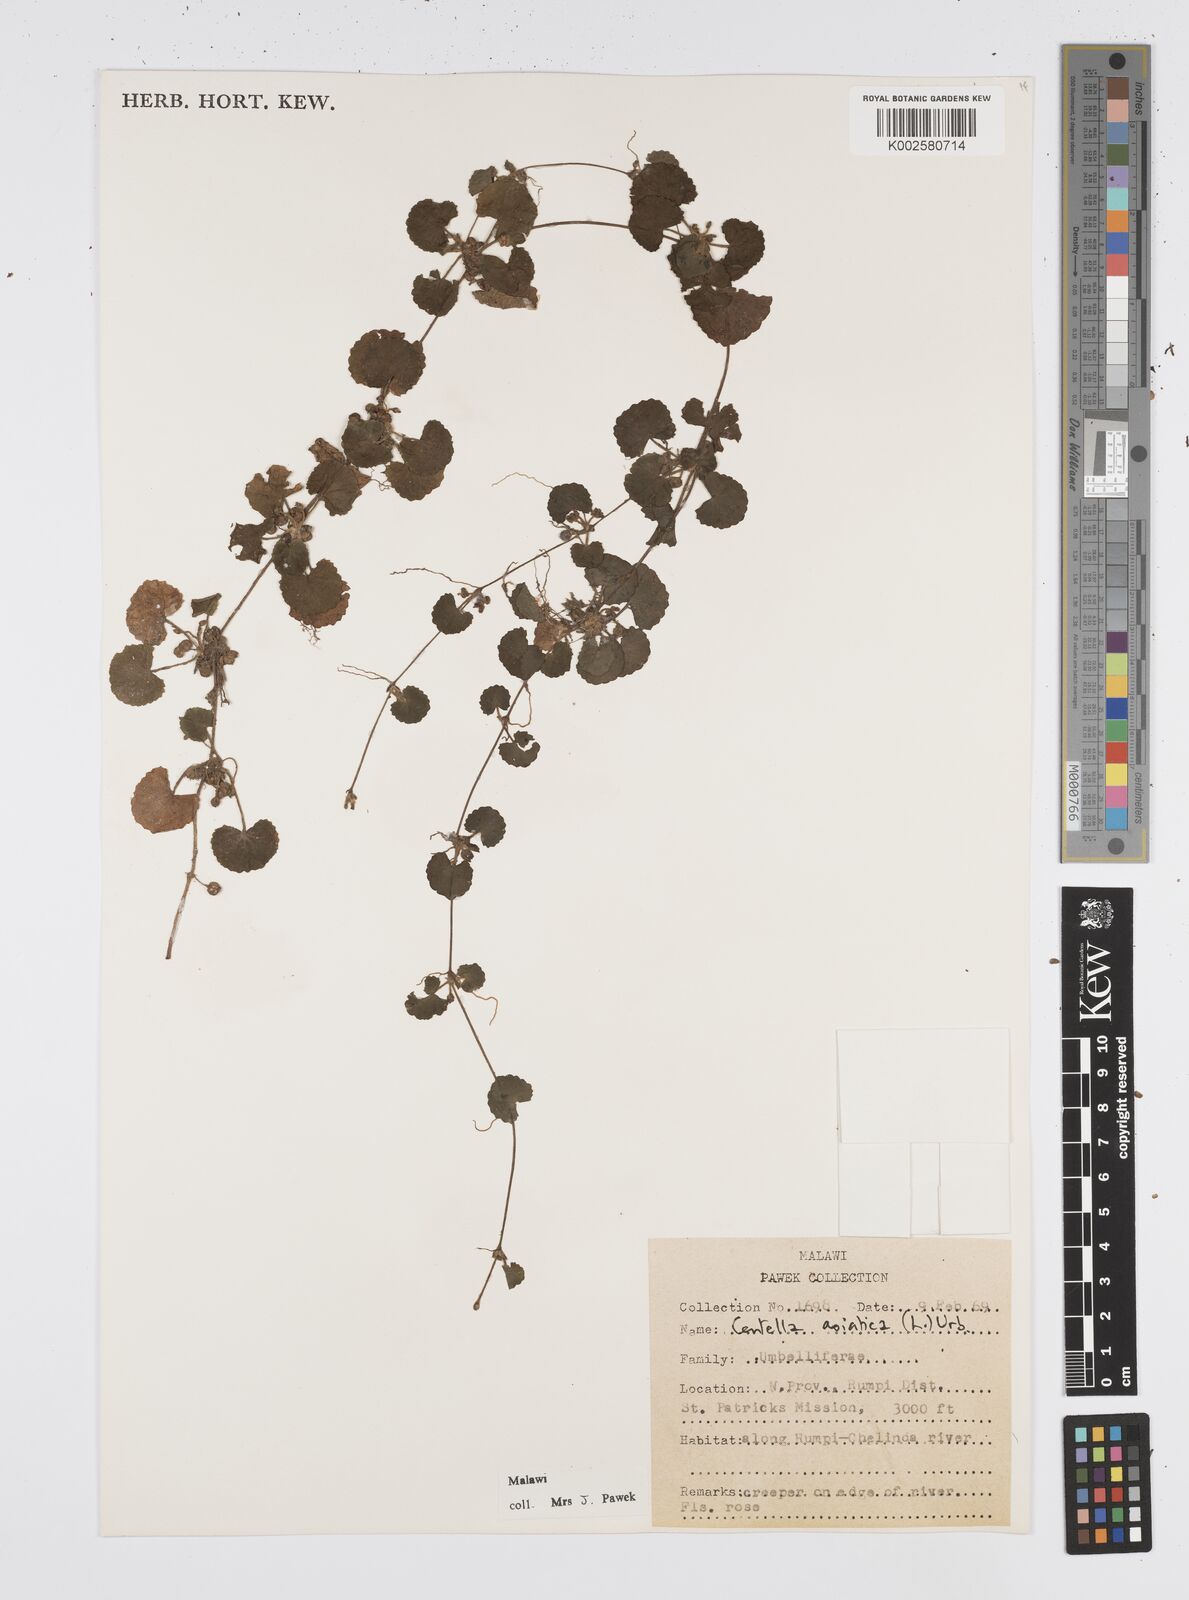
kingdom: Plantae
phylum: Tracheophyta
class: Magnoliopsida
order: Apiales
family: Apiaceae
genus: Centella
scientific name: Centella asiatica
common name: Spadeleaf
